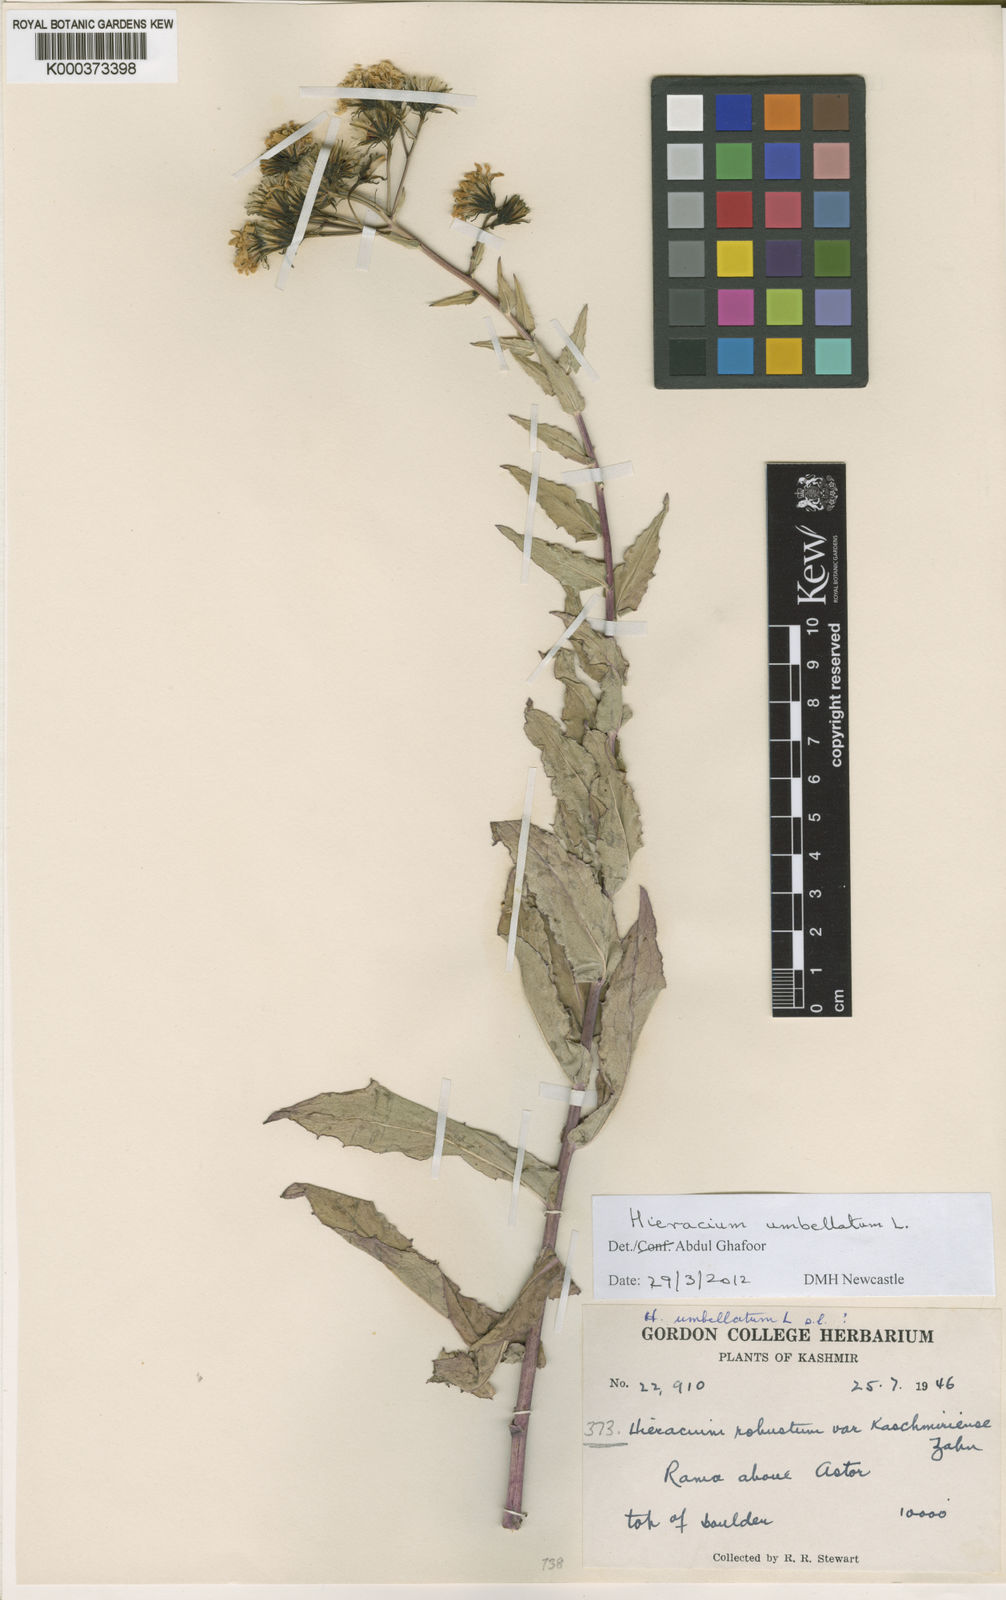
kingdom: Plantae
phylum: Tracheophyta
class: Magnoliopsida
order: Asterales
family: Asteraceae
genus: Hieracium
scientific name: Hieracium umbellatum
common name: Northern hawkweed
